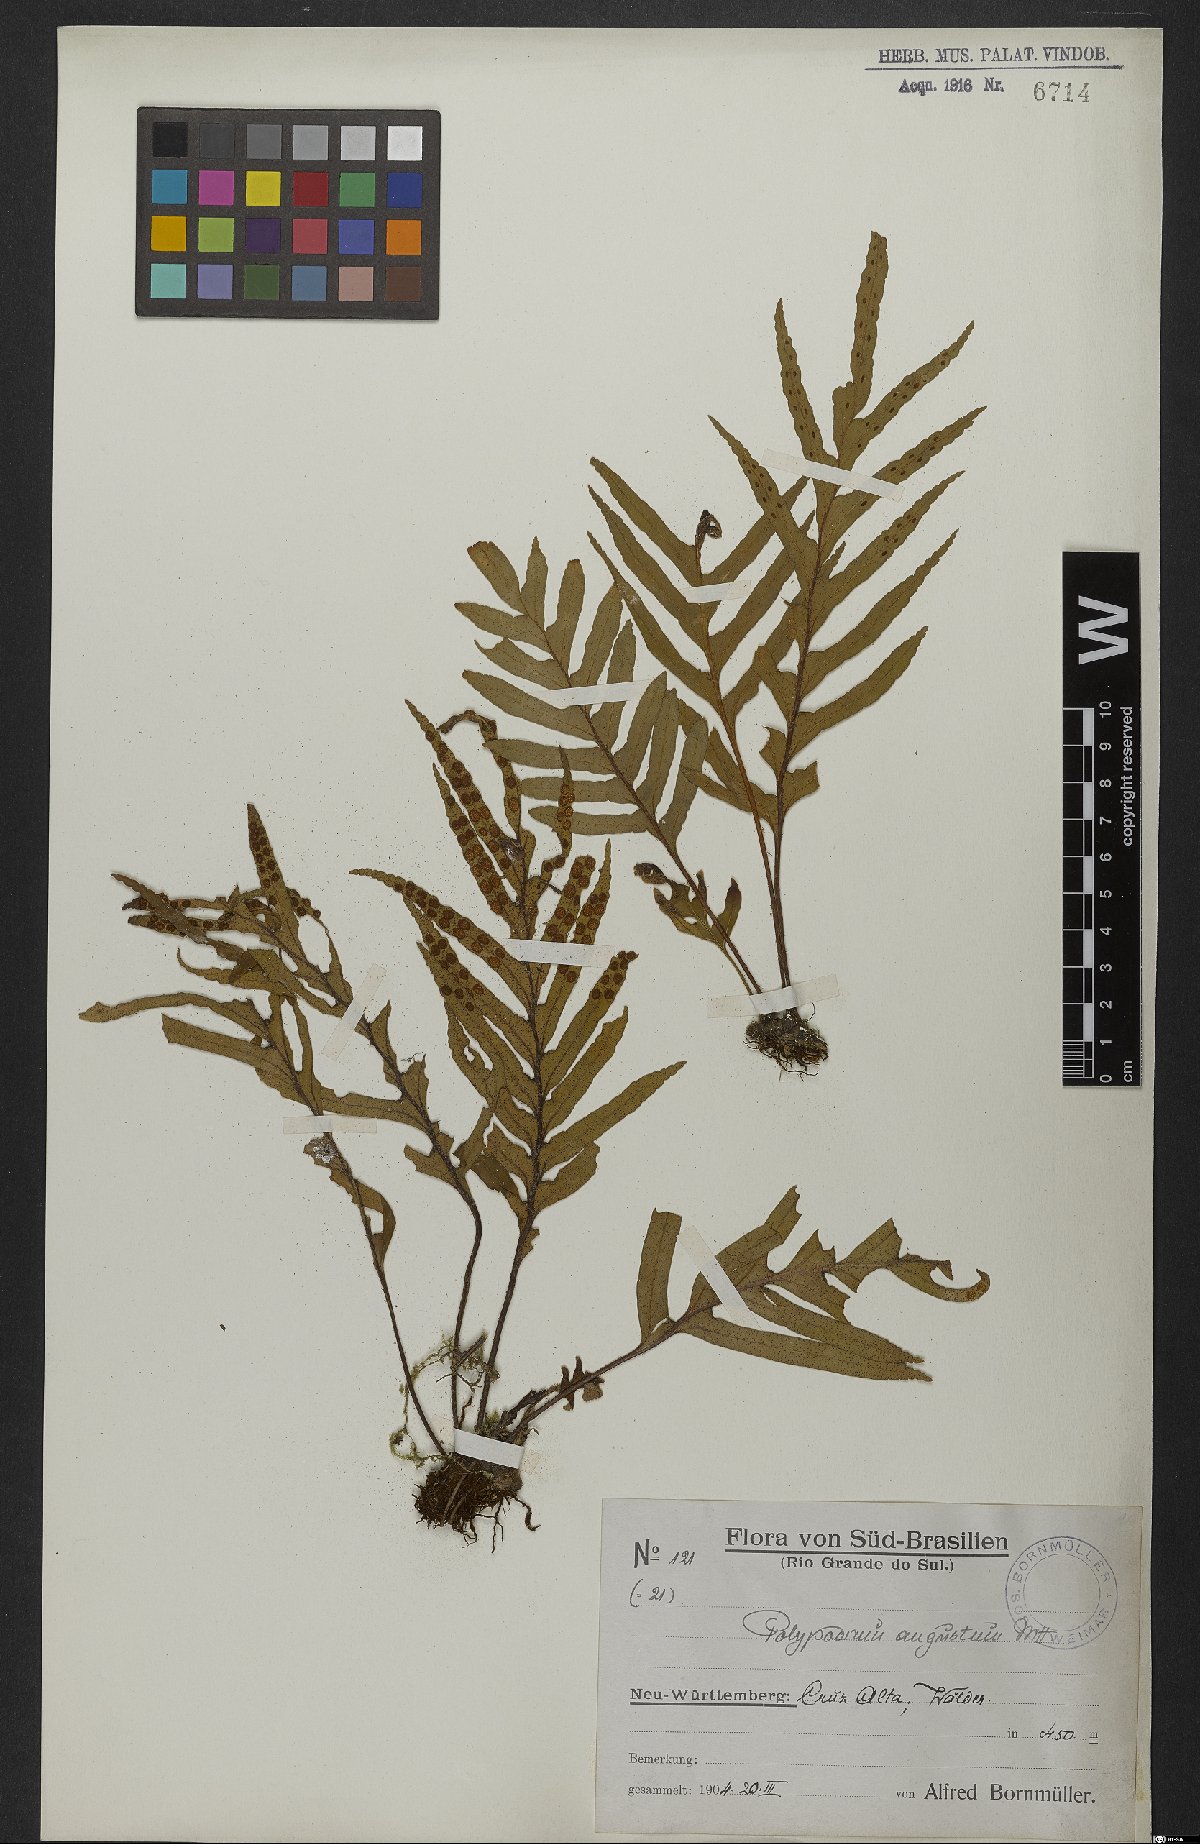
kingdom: Plantae
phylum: Tracheophyta
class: Polypodiopsida
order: Polypodiales
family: Polypodiaceae
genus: Pleopeltis
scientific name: Pleopeltis angusta
